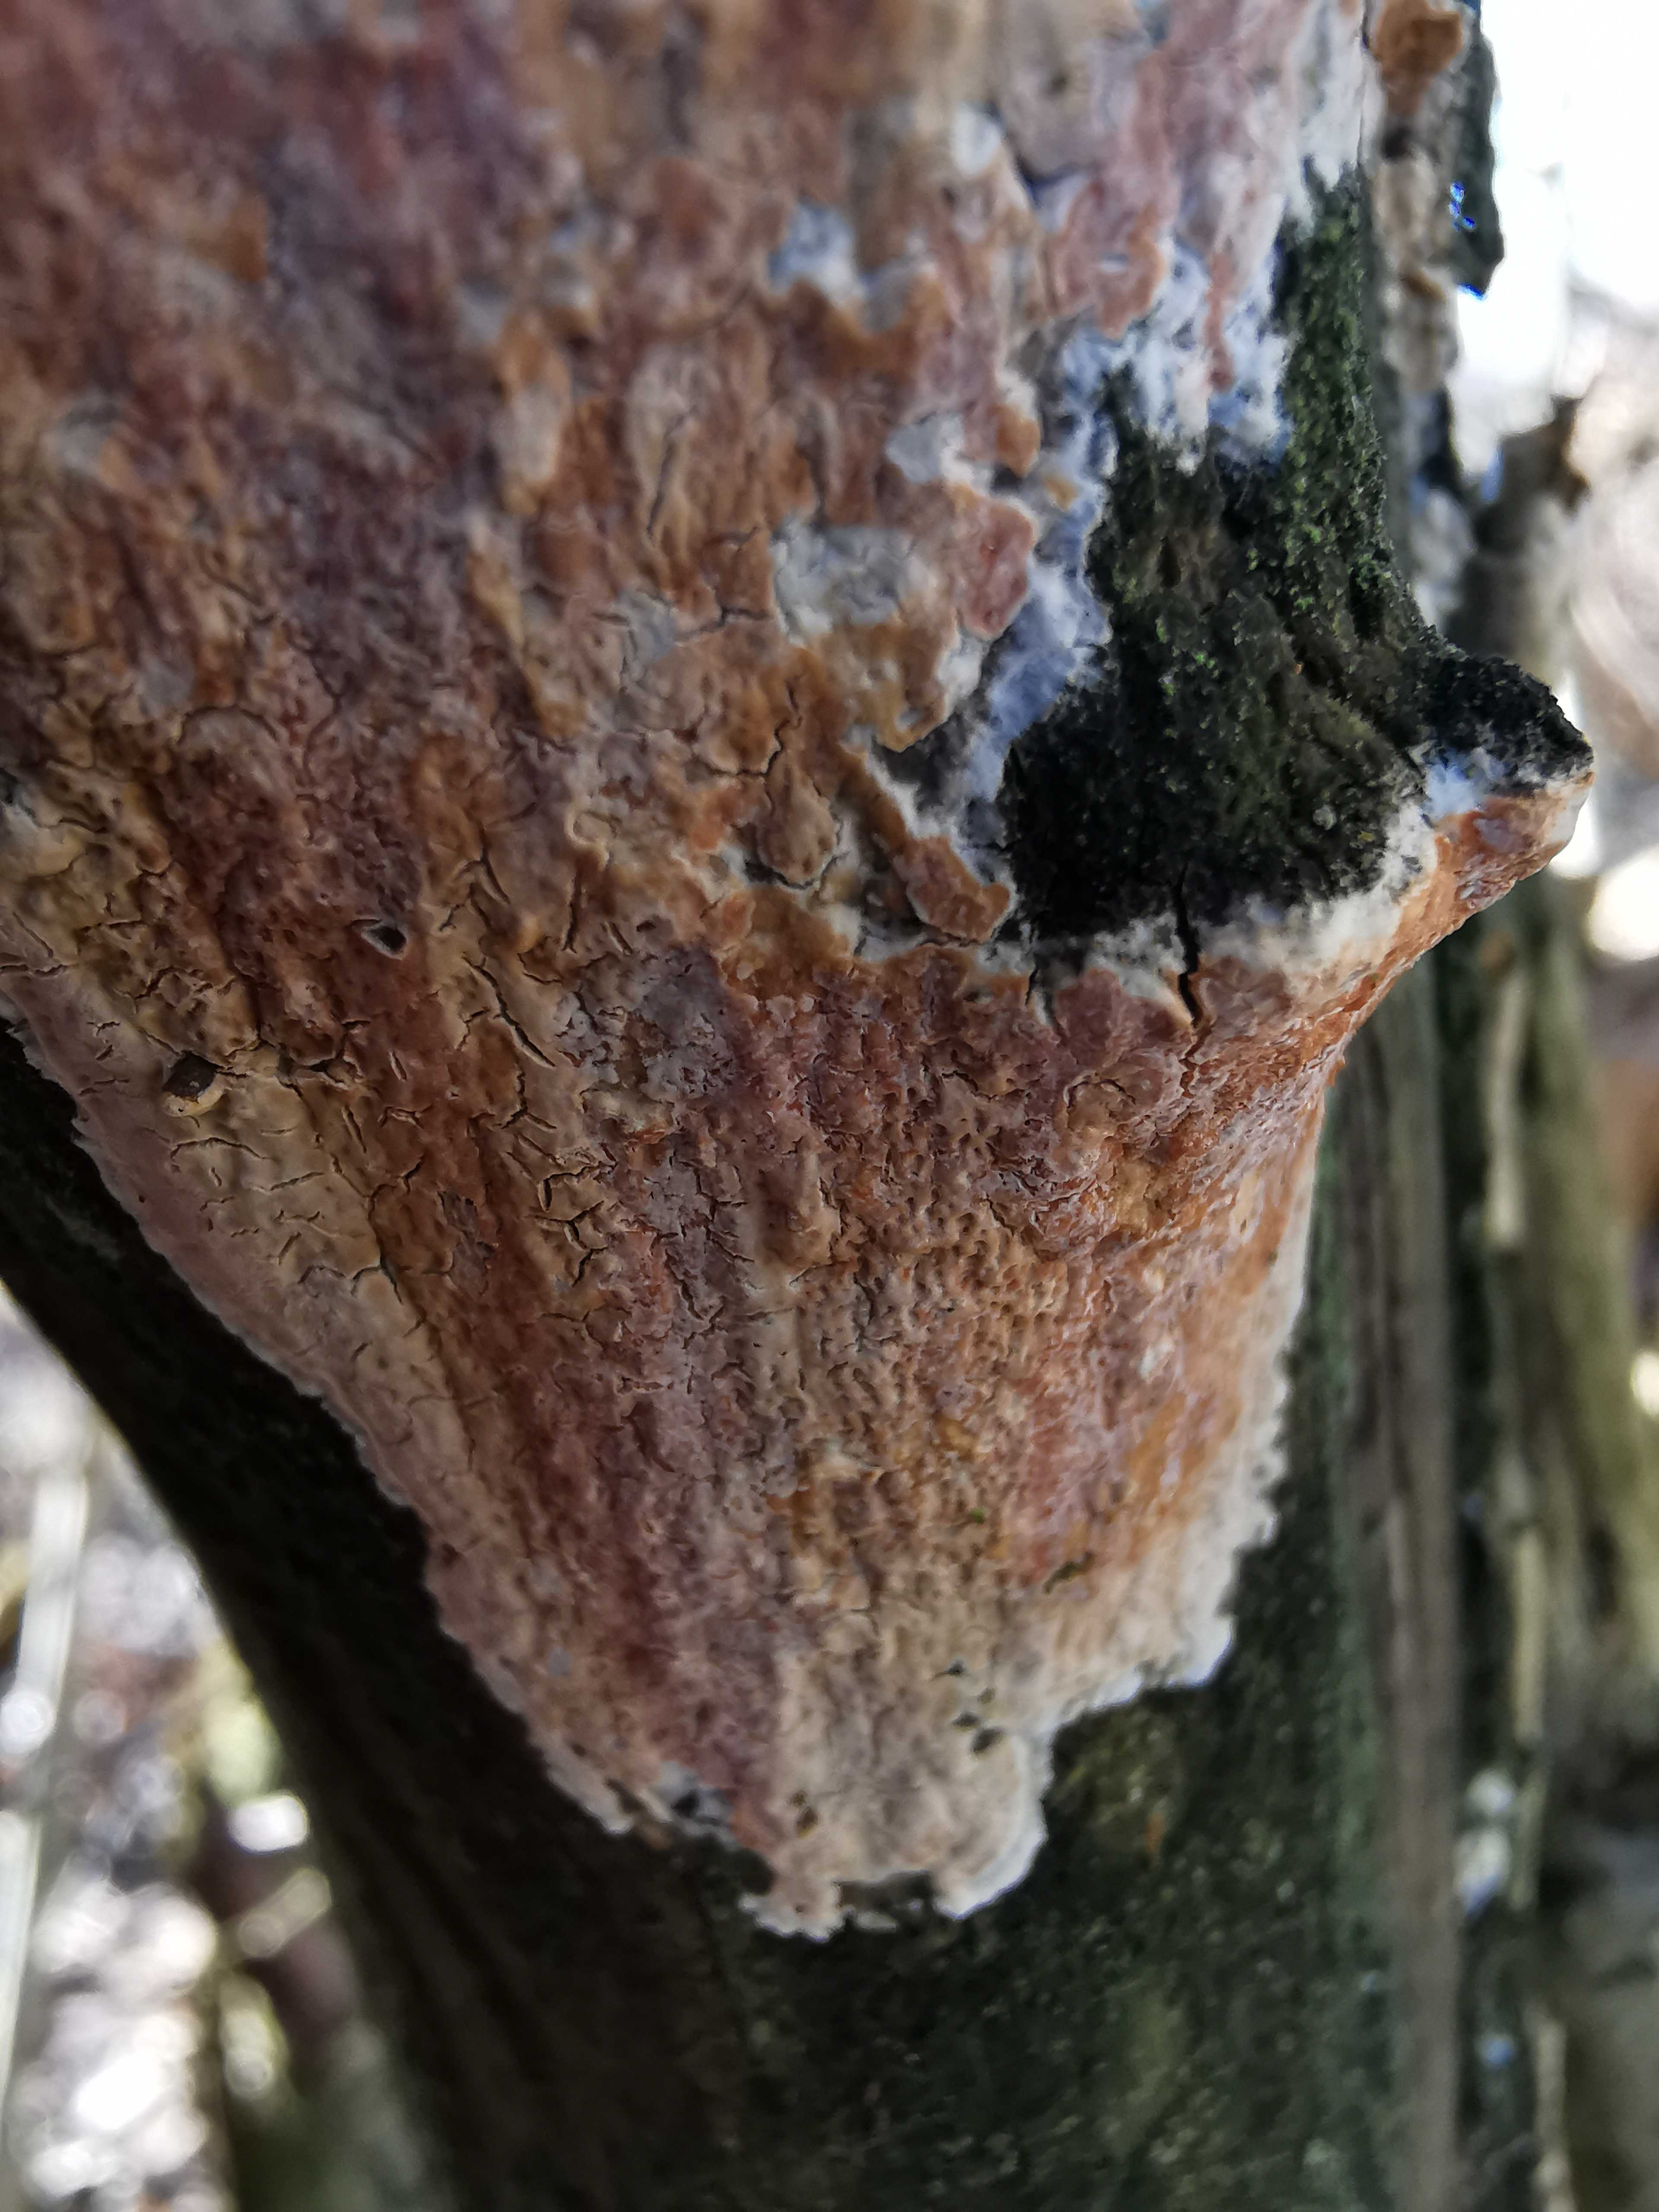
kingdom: Fungi
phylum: Basidiomycota
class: Agaricomycetes
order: Russulales
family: Peniophoraceae
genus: Peniophora
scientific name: Peniophora incarnata
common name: laksefarvet voksskind
